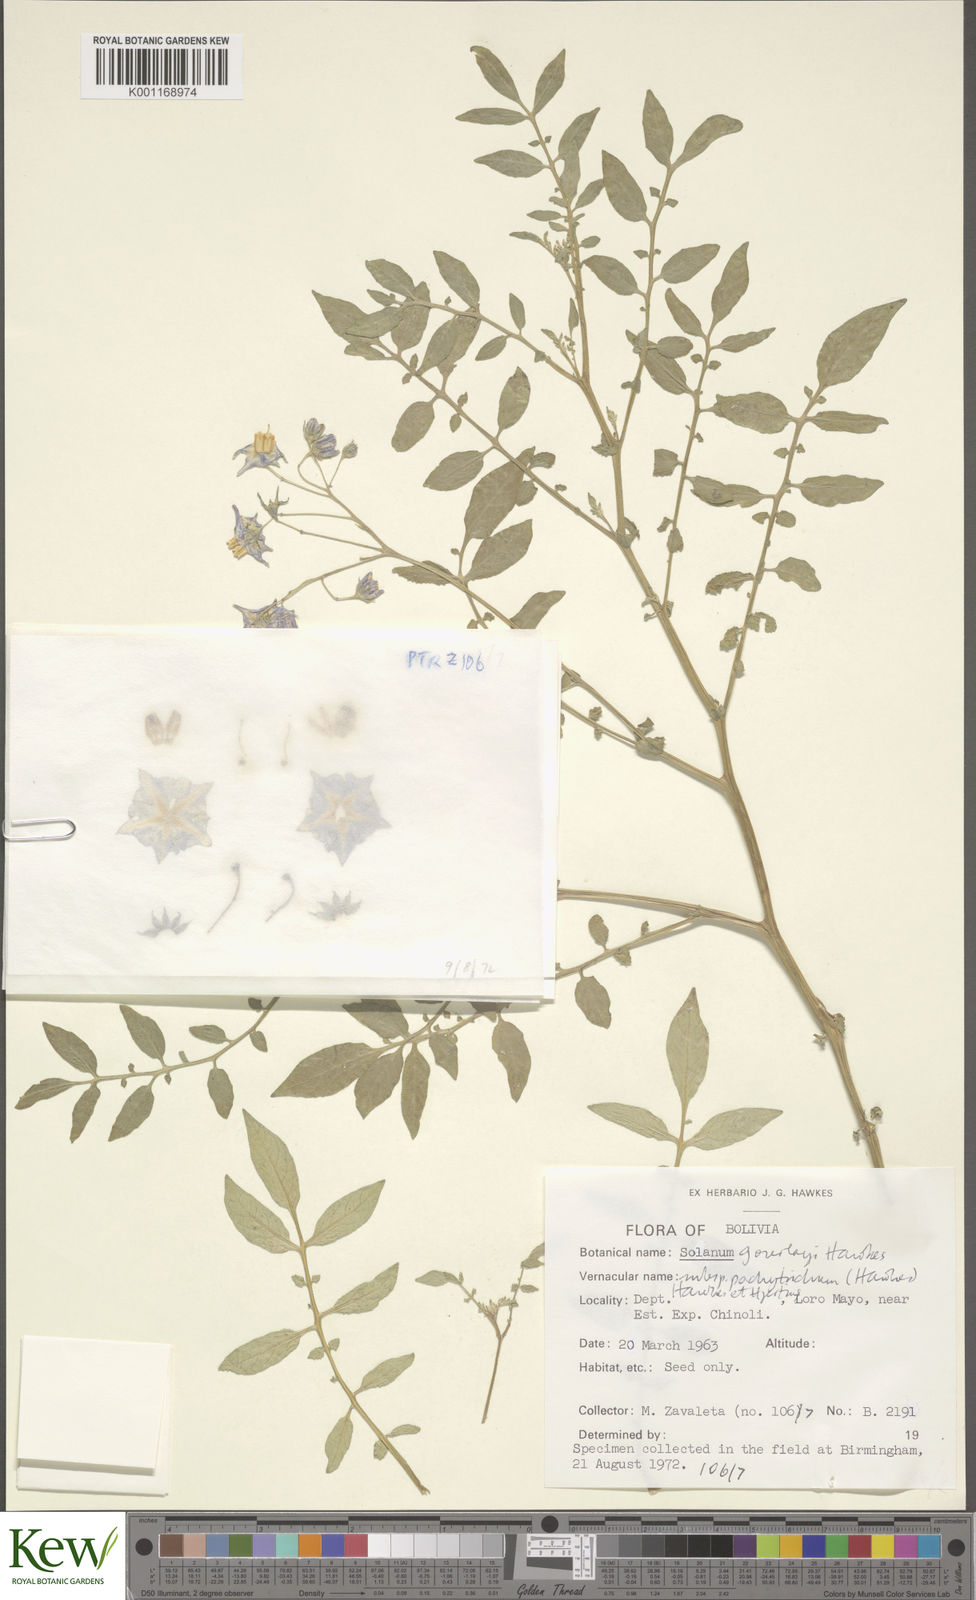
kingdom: Plantae
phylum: Tracheophyta
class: Magnoliopsida
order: Solanales
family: Solanaceae
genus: Solanum
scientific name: Solanum brevicaule
